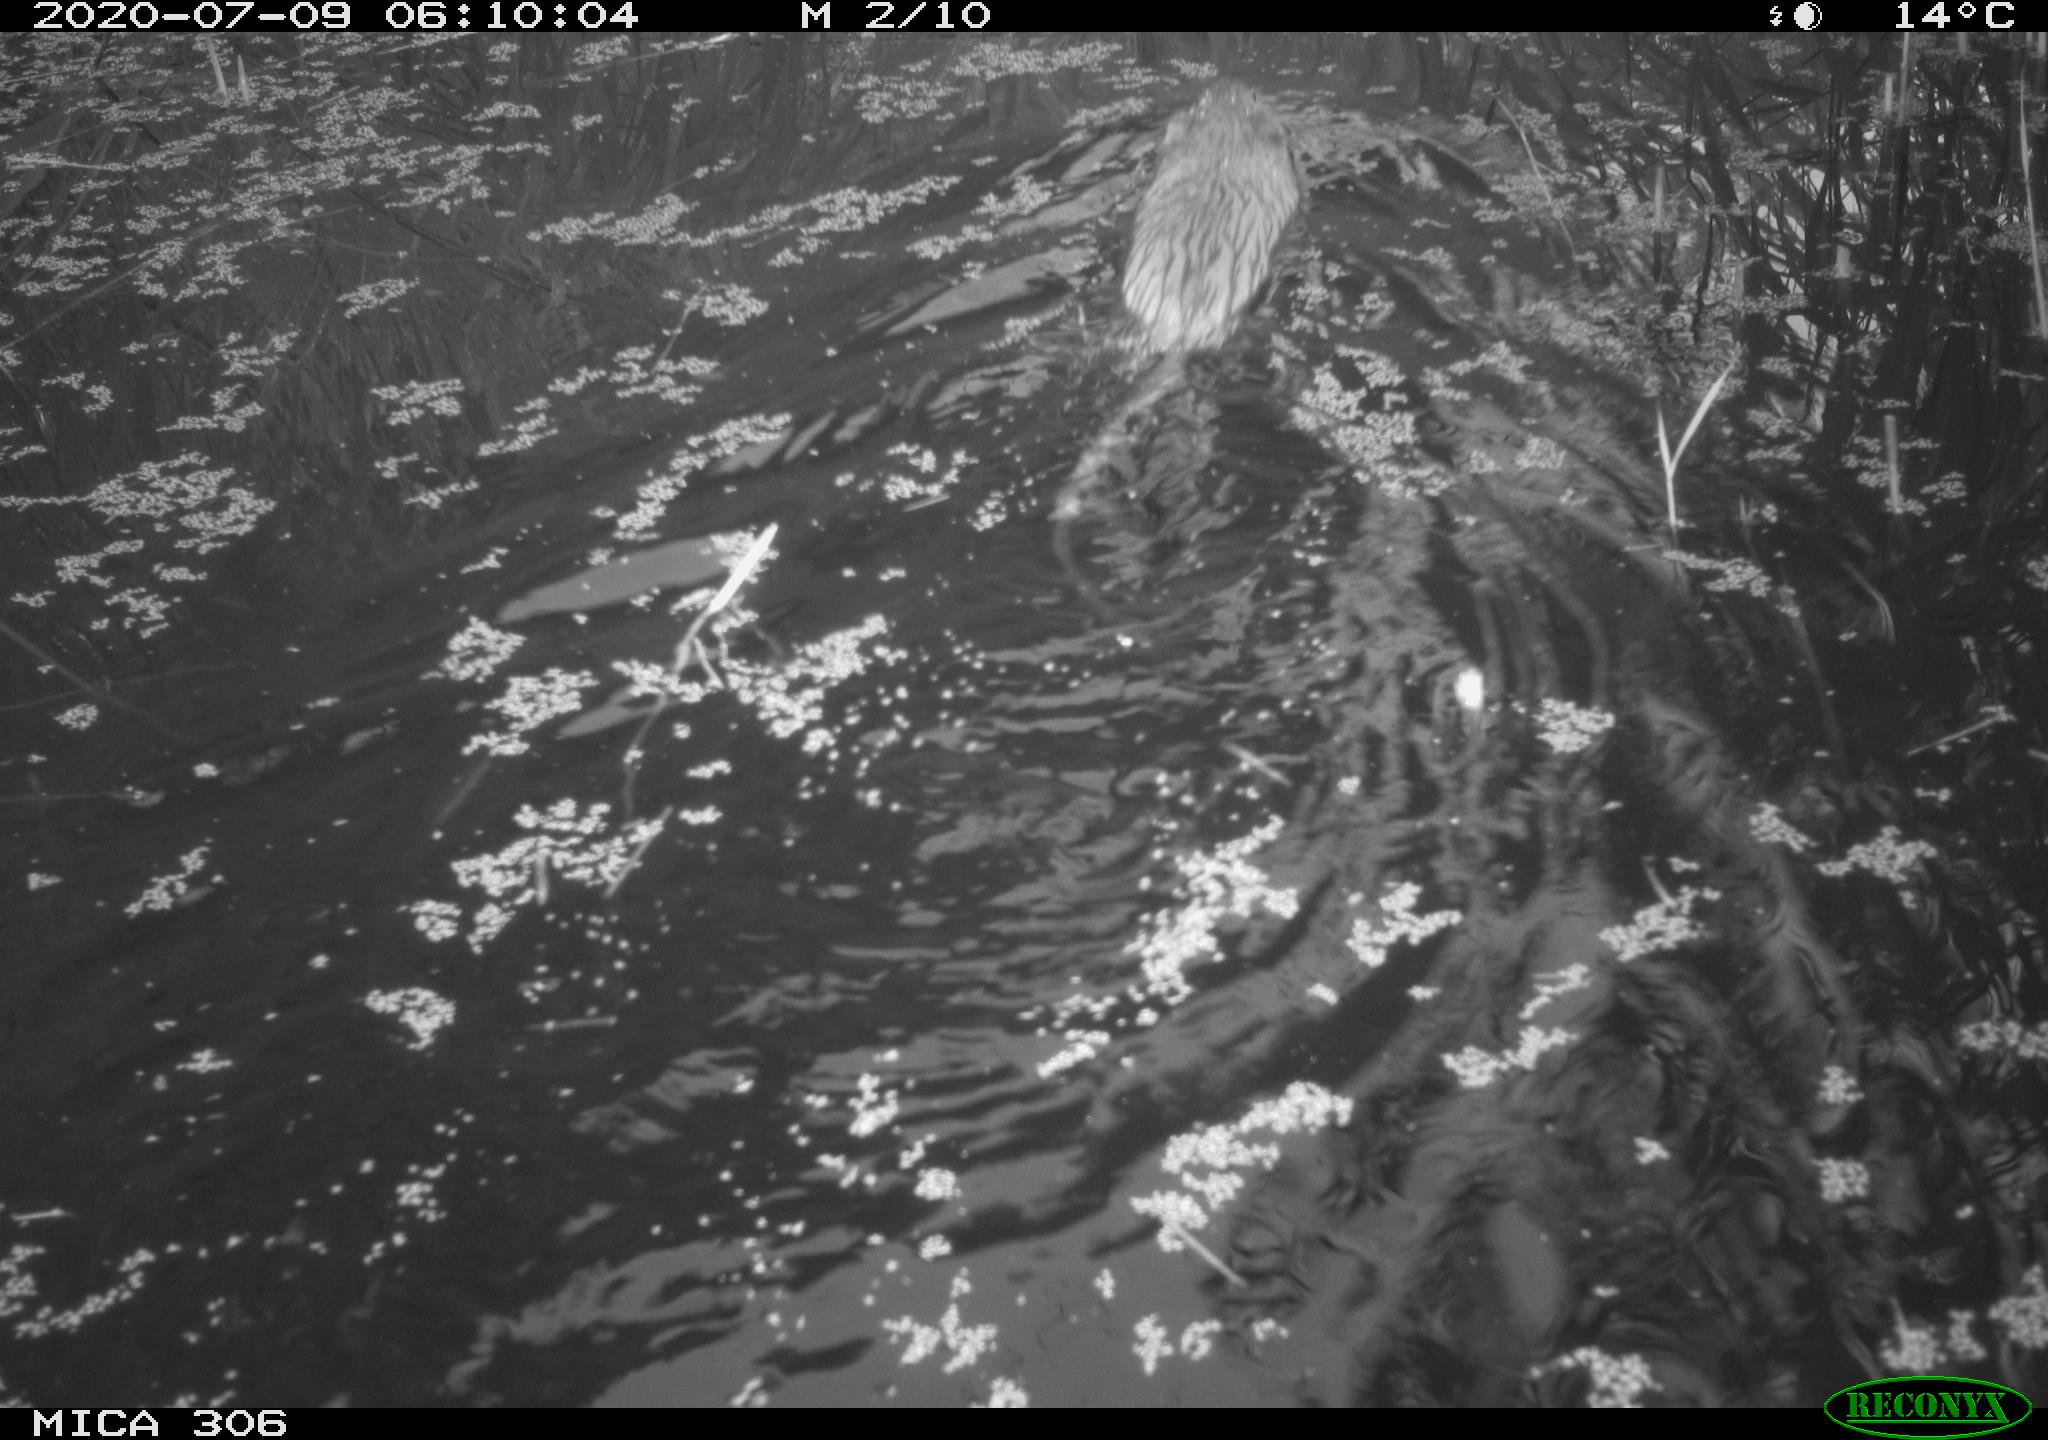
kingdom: Animalia
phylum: Chordata
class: Mammalia
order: Rodentia
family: Cricetidae
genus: Ondatra
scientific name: Ondatra zibethicus
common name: Muskrat
